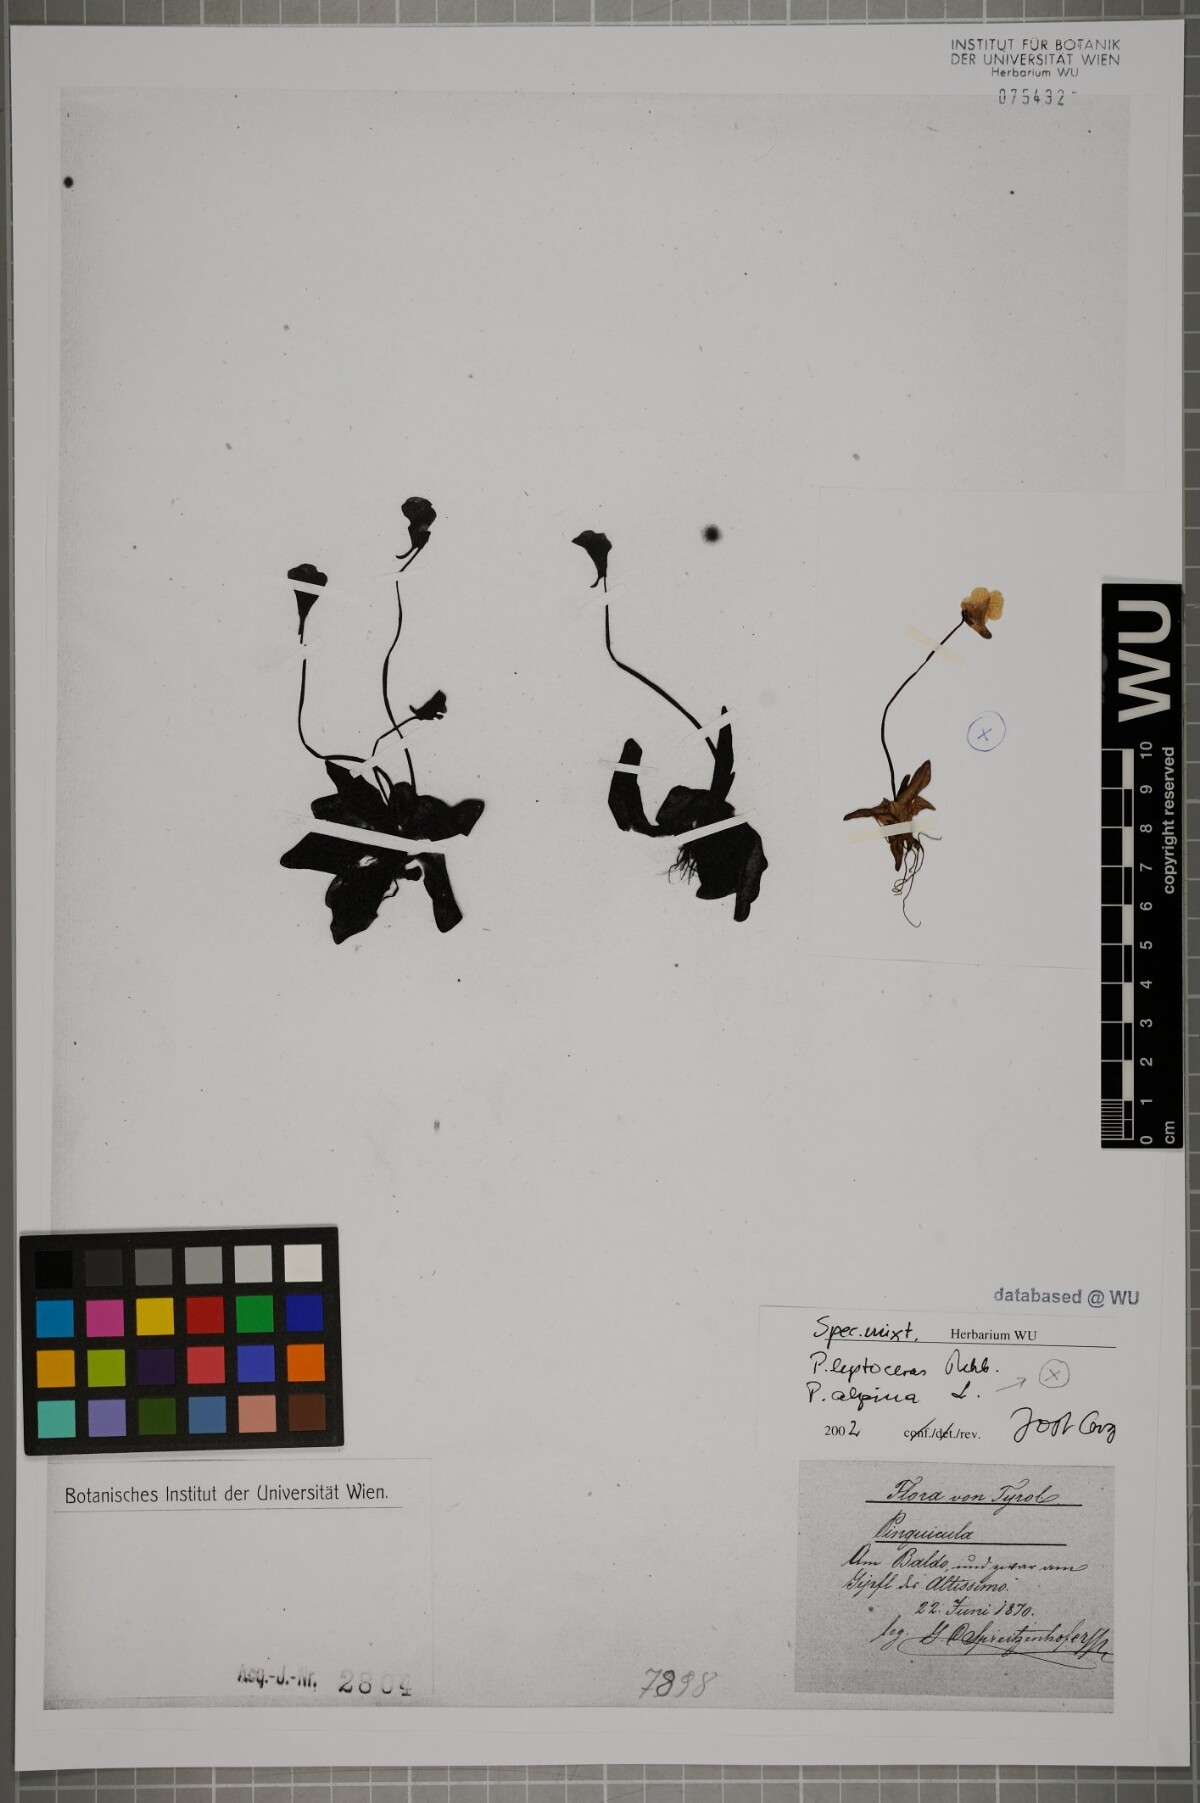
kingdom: Plantae
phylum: Tracheophyta
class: Magnoliopsida
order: Lamiales
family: Lentibulariaceae
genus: Pinguicula
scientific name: Pinguicula alpina
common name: Alpine butterwort
